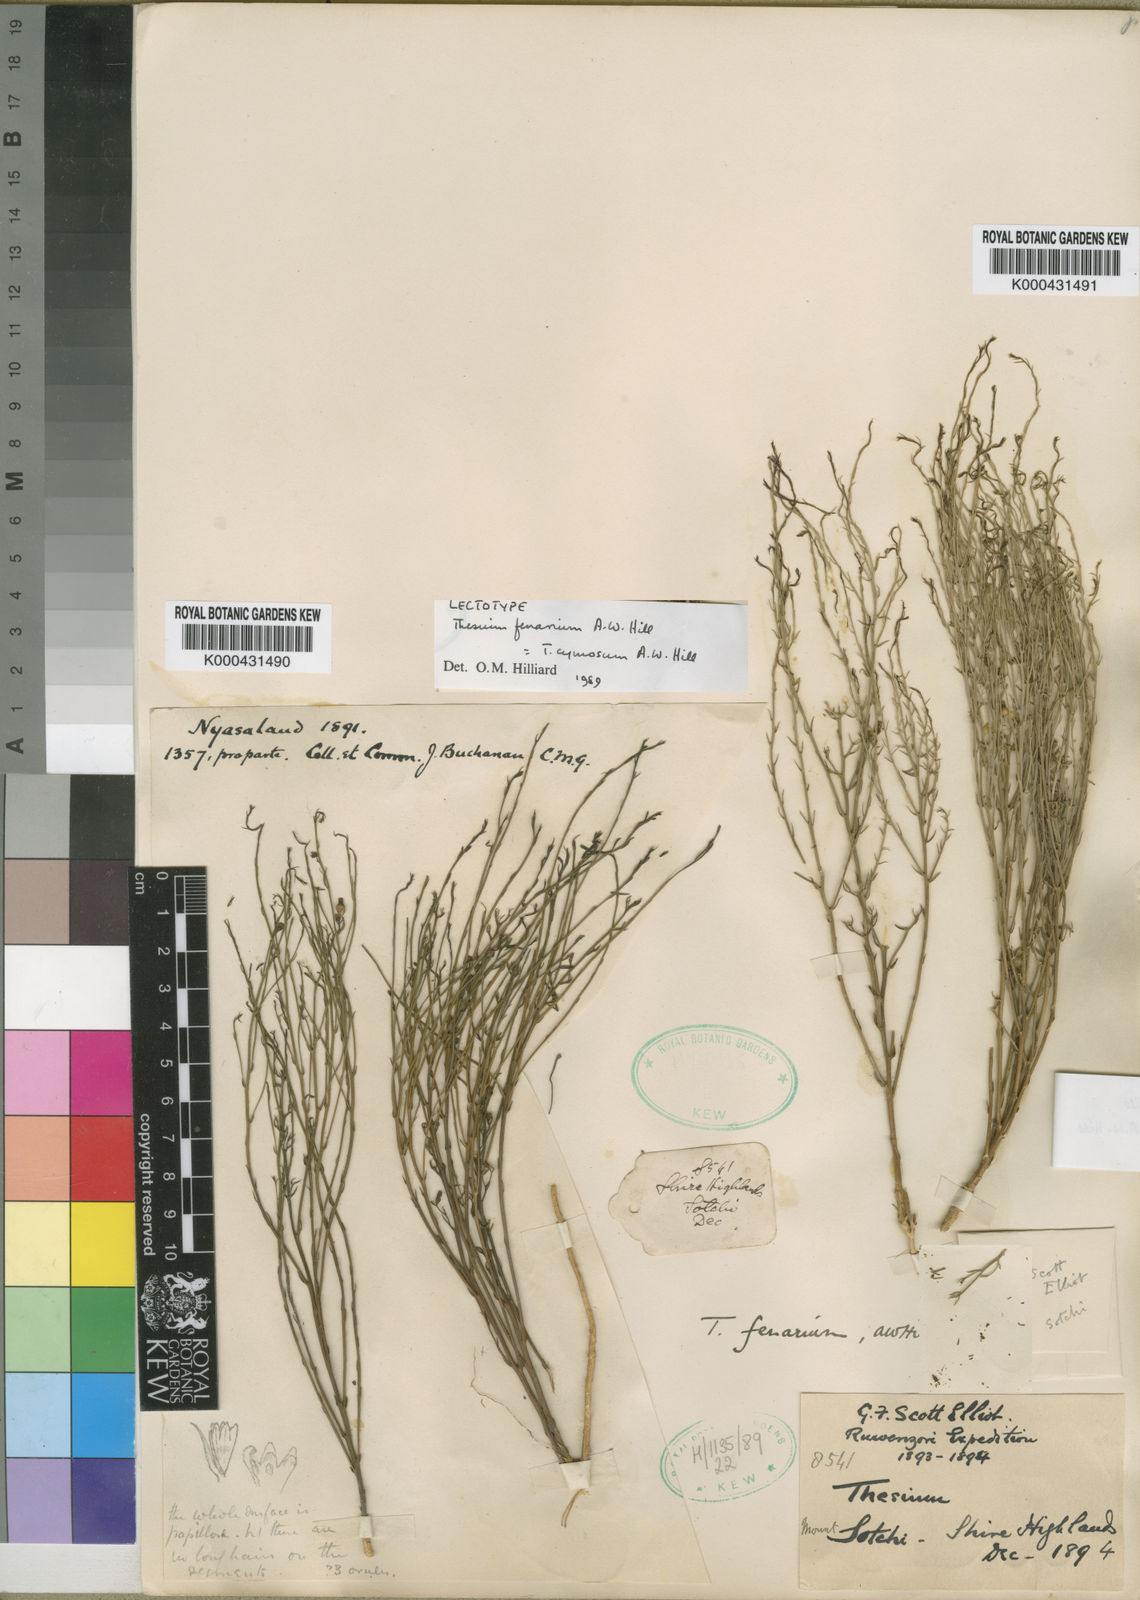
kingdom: Plantae
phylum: Tracheophyta
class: Magnoliopsida
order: Santalales
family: Thesiaceae
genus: Thesium
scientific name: Thesium cymosum
